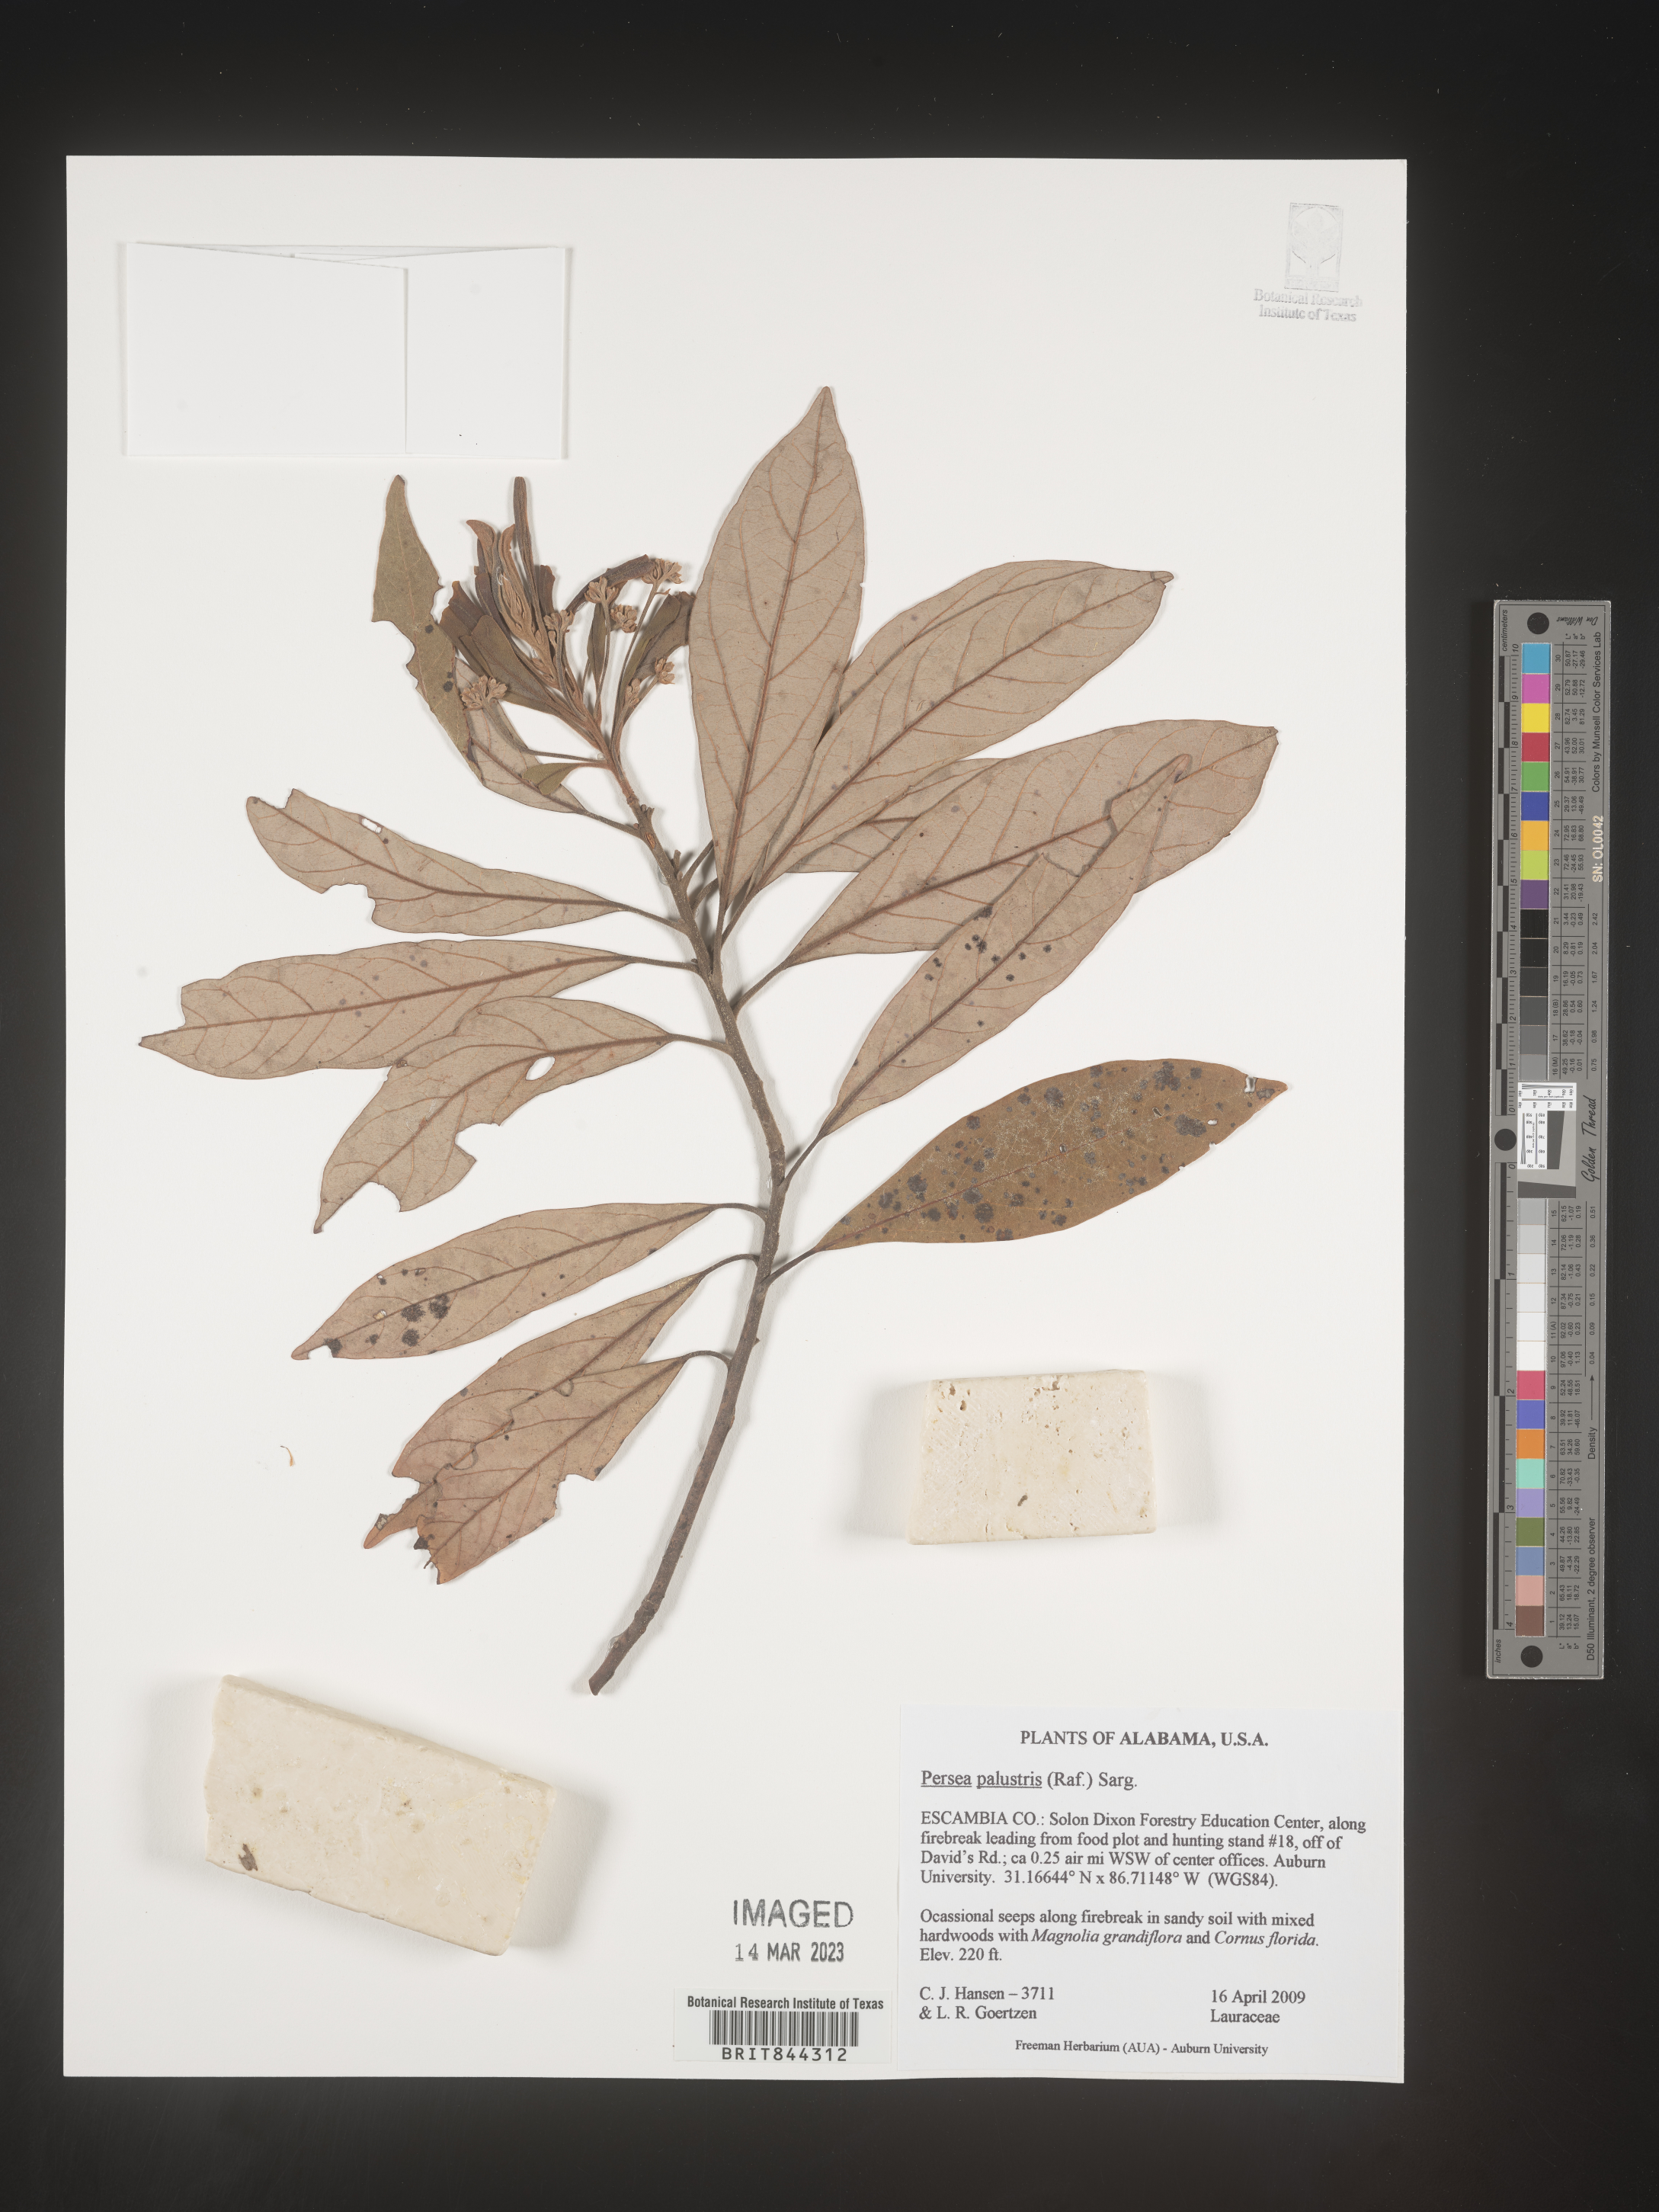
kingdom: Plantae
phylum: Tracheophyta
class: Magnoliopsida
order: Laurales
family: Lauraceae
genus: Persea
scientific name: Persea palustris
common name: Swampbay
